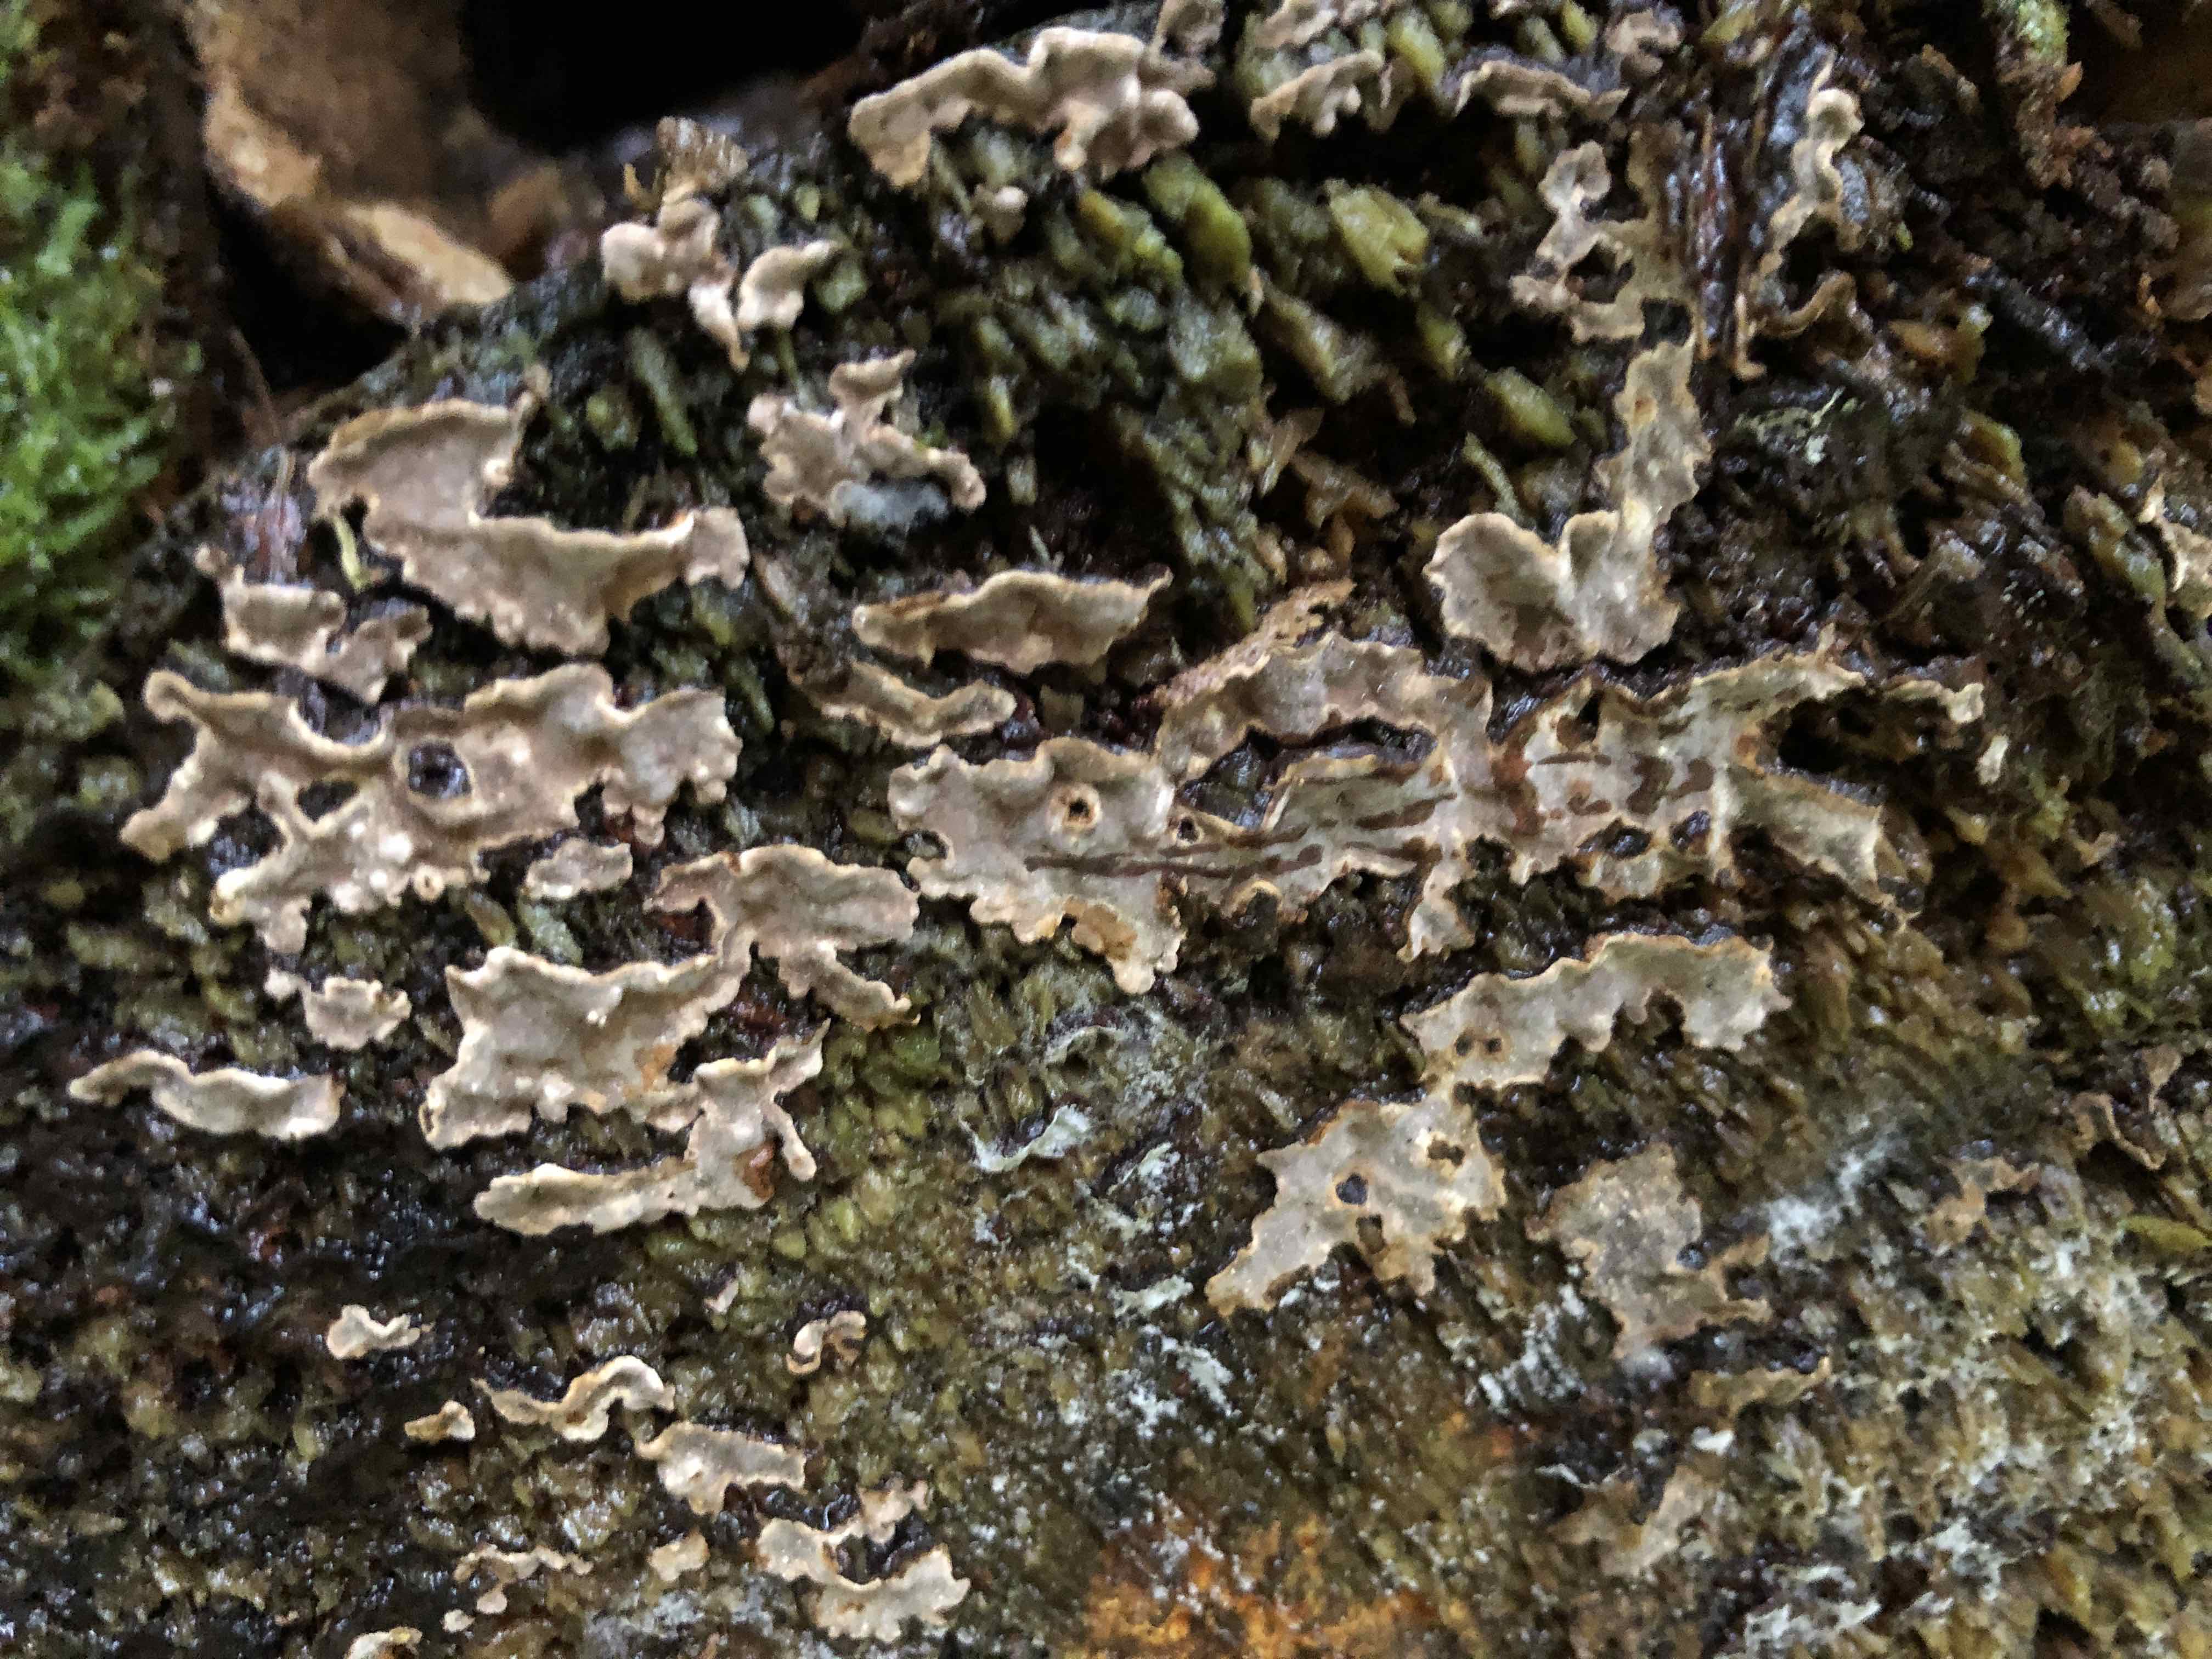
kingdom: Fungi
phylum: Basidiomycota
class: Agaricomycetes
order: Russulales
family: Echinodontiaceae
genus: Amylostereum
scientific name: Amylostereum chailletii
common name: gran-lædersvamp
